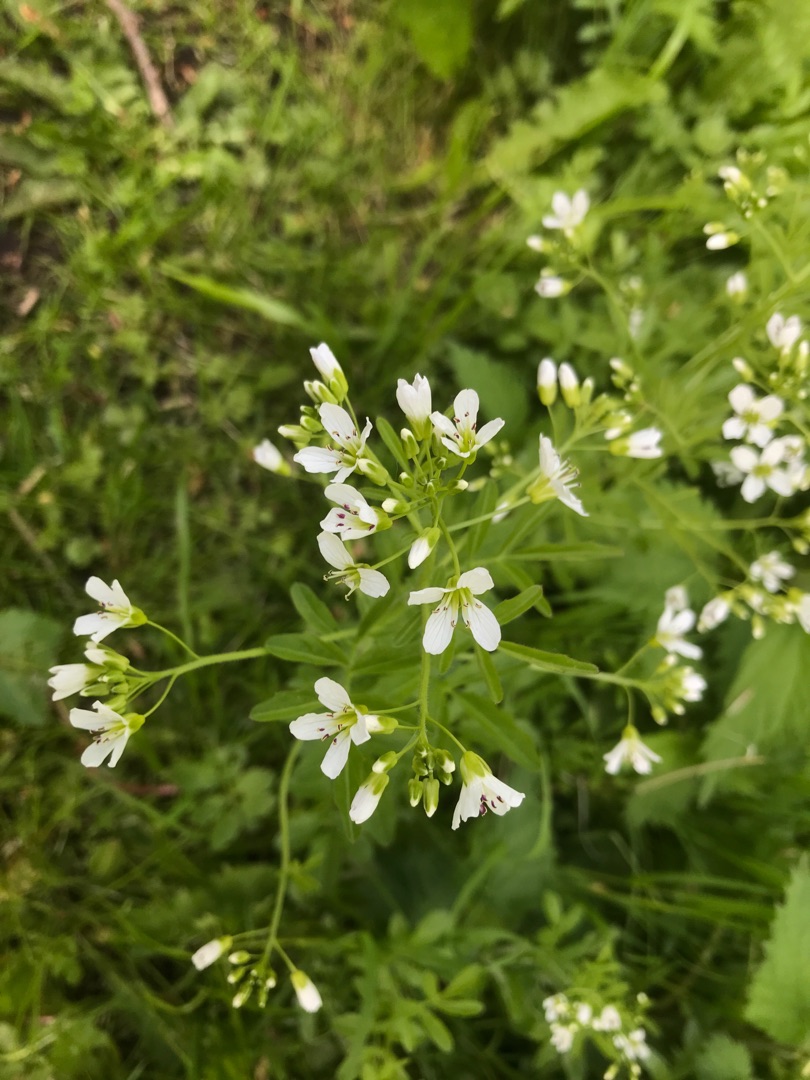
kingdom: Plantae
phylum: Tracheophyta
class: Magnoliopsida
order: Brassicales
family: Brassicaceae
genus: Cardamine
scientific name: Cardamine amara
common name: Vandkarse
